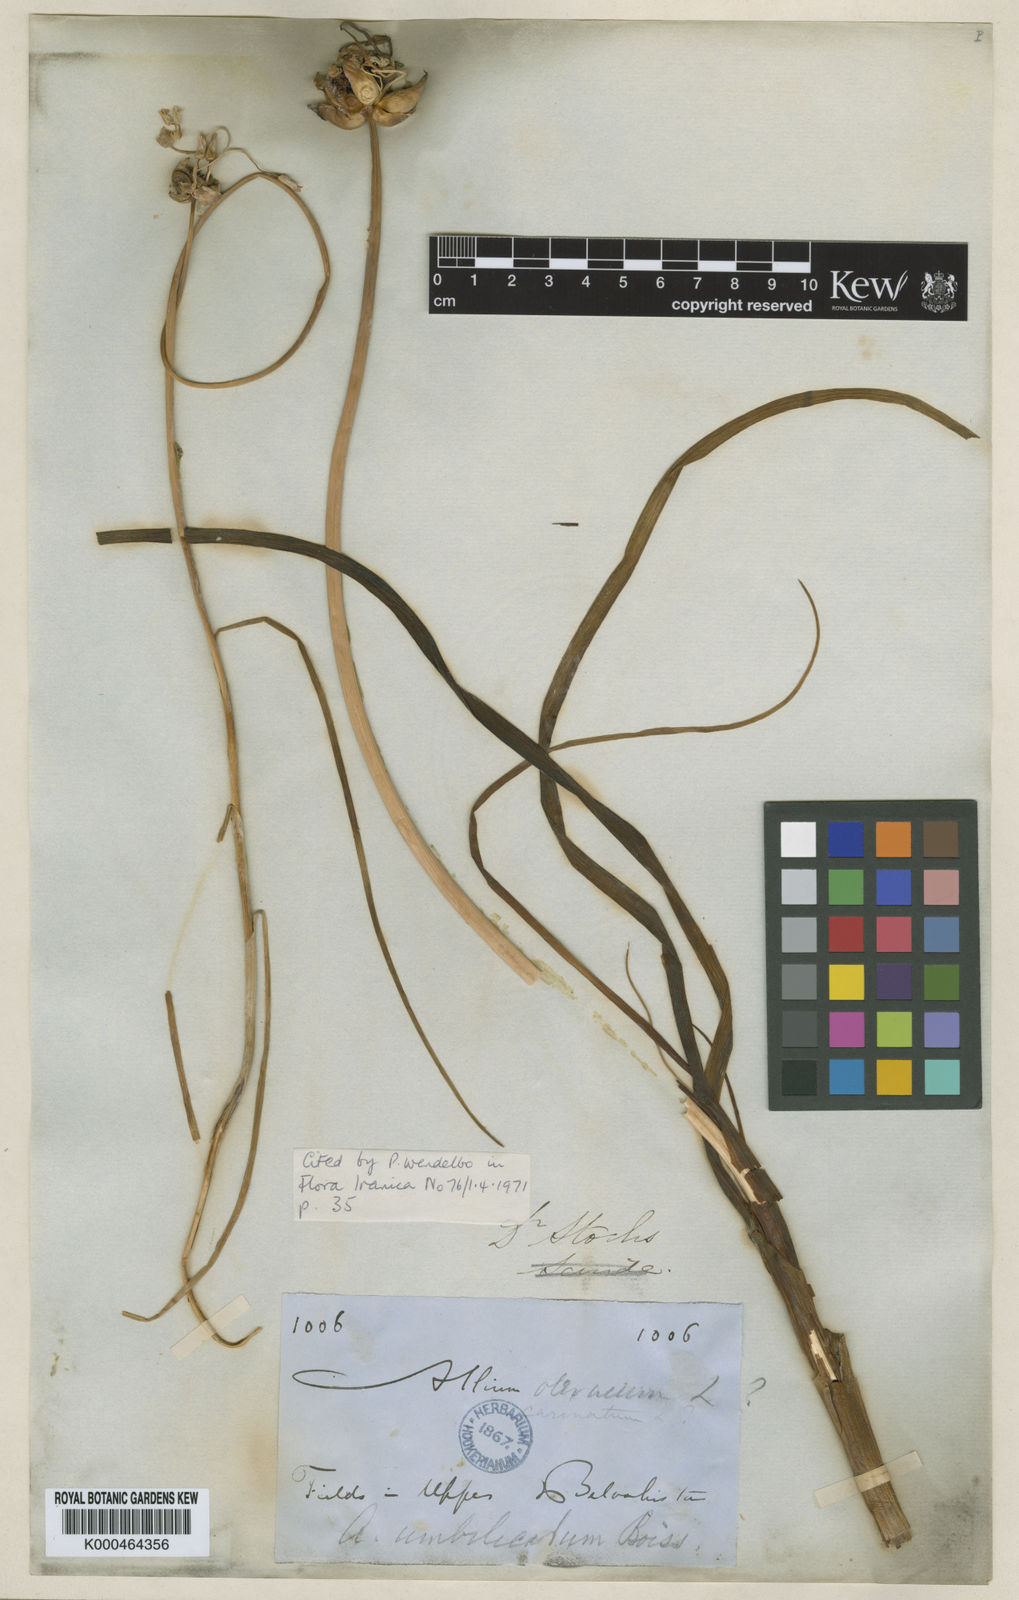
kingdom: Plantae
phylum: Tracheophyta
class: Liliopsida
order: Asparagales
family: Amaryllidaceae
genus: Allium
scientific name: Allium umbilicatum
